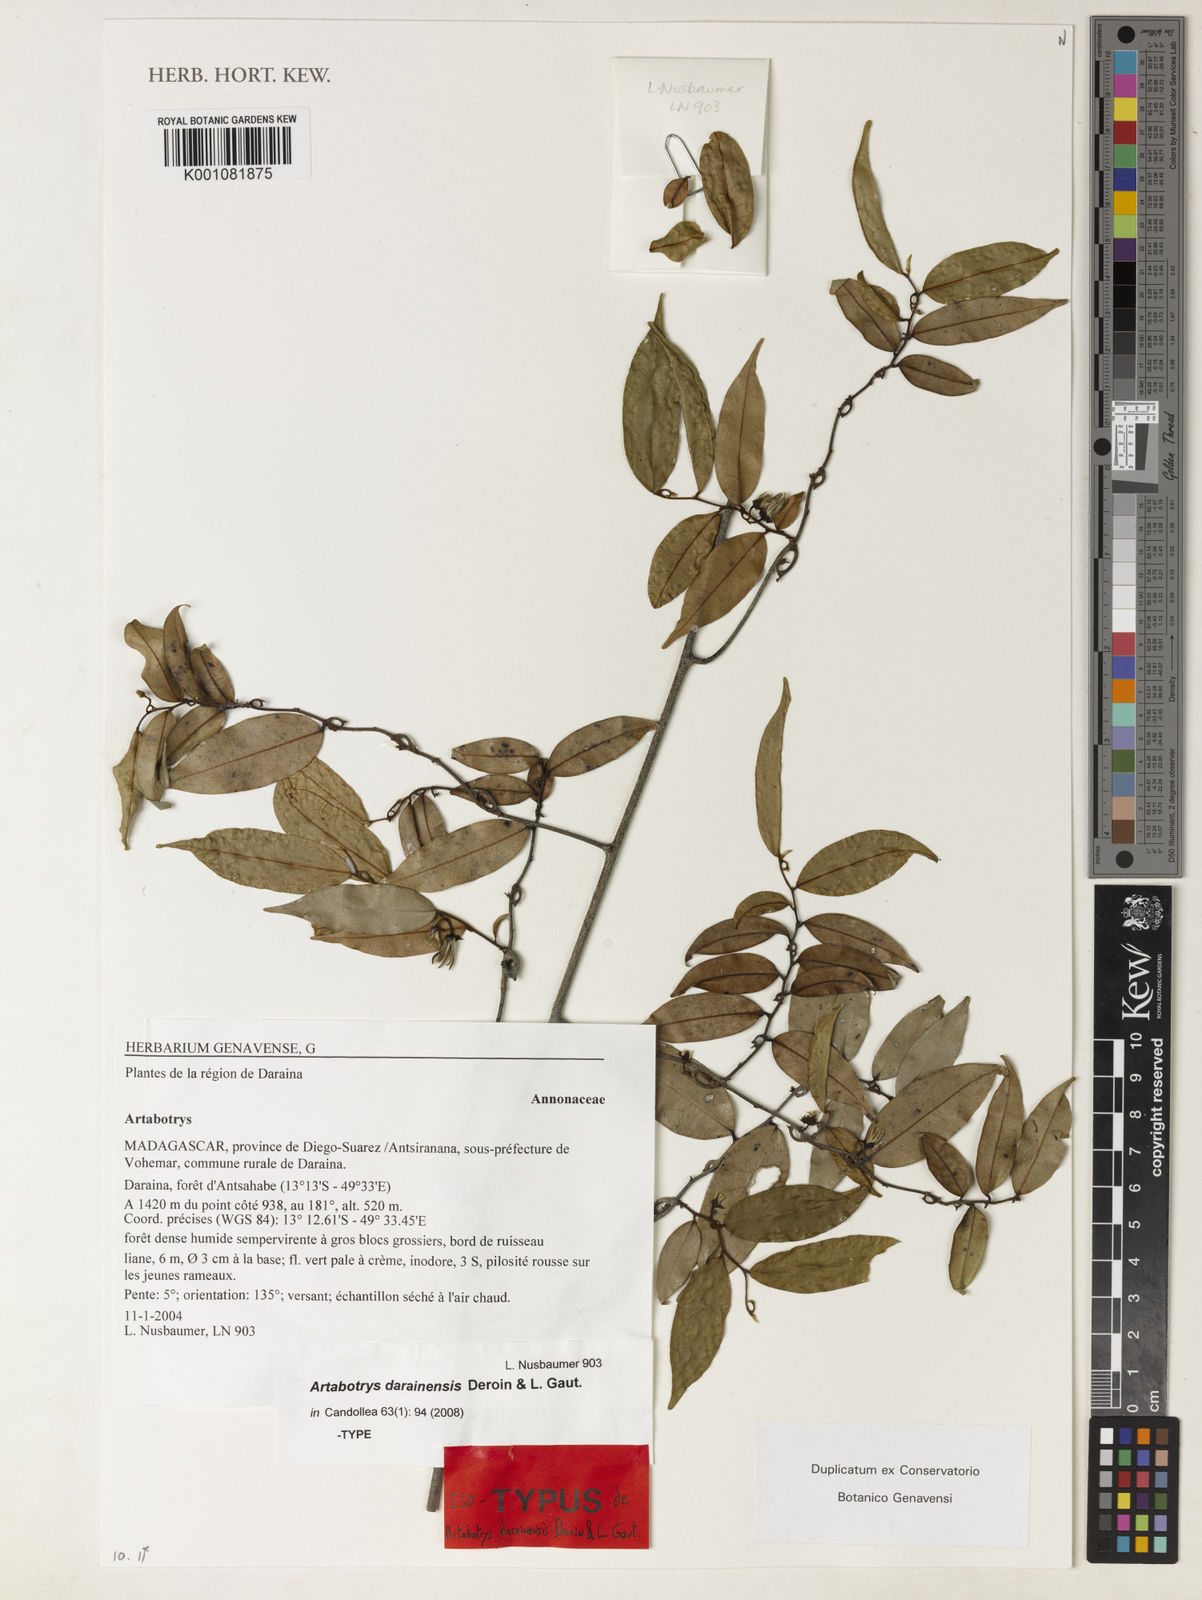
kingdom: Plantae
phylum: Tracheophyta
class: Magnoliopsida
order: Magnoliales
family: Annonaceae
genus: Artabotrys
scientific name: Artabotrys darainensis
